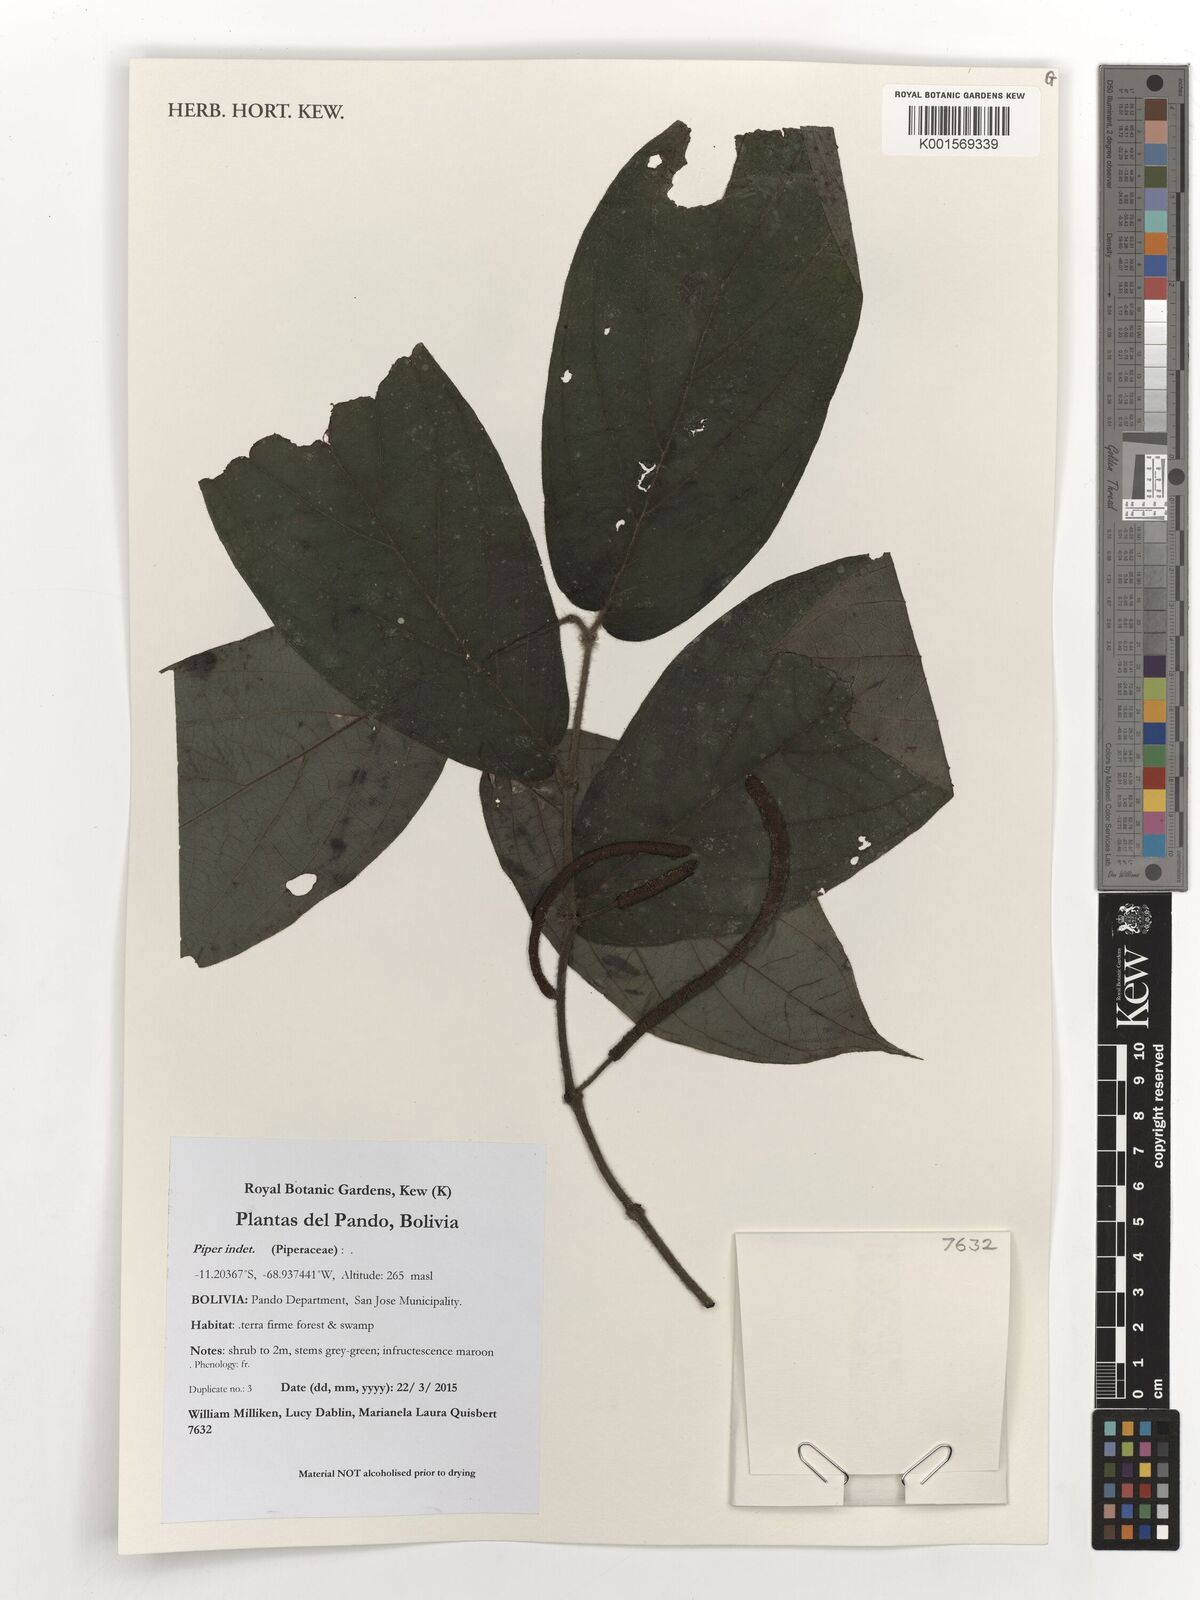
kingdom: Plantae
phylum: Tracheophyta
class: Magnoliopsida
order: Piperales
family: Piperaceae
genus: Piper
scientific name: Piper
